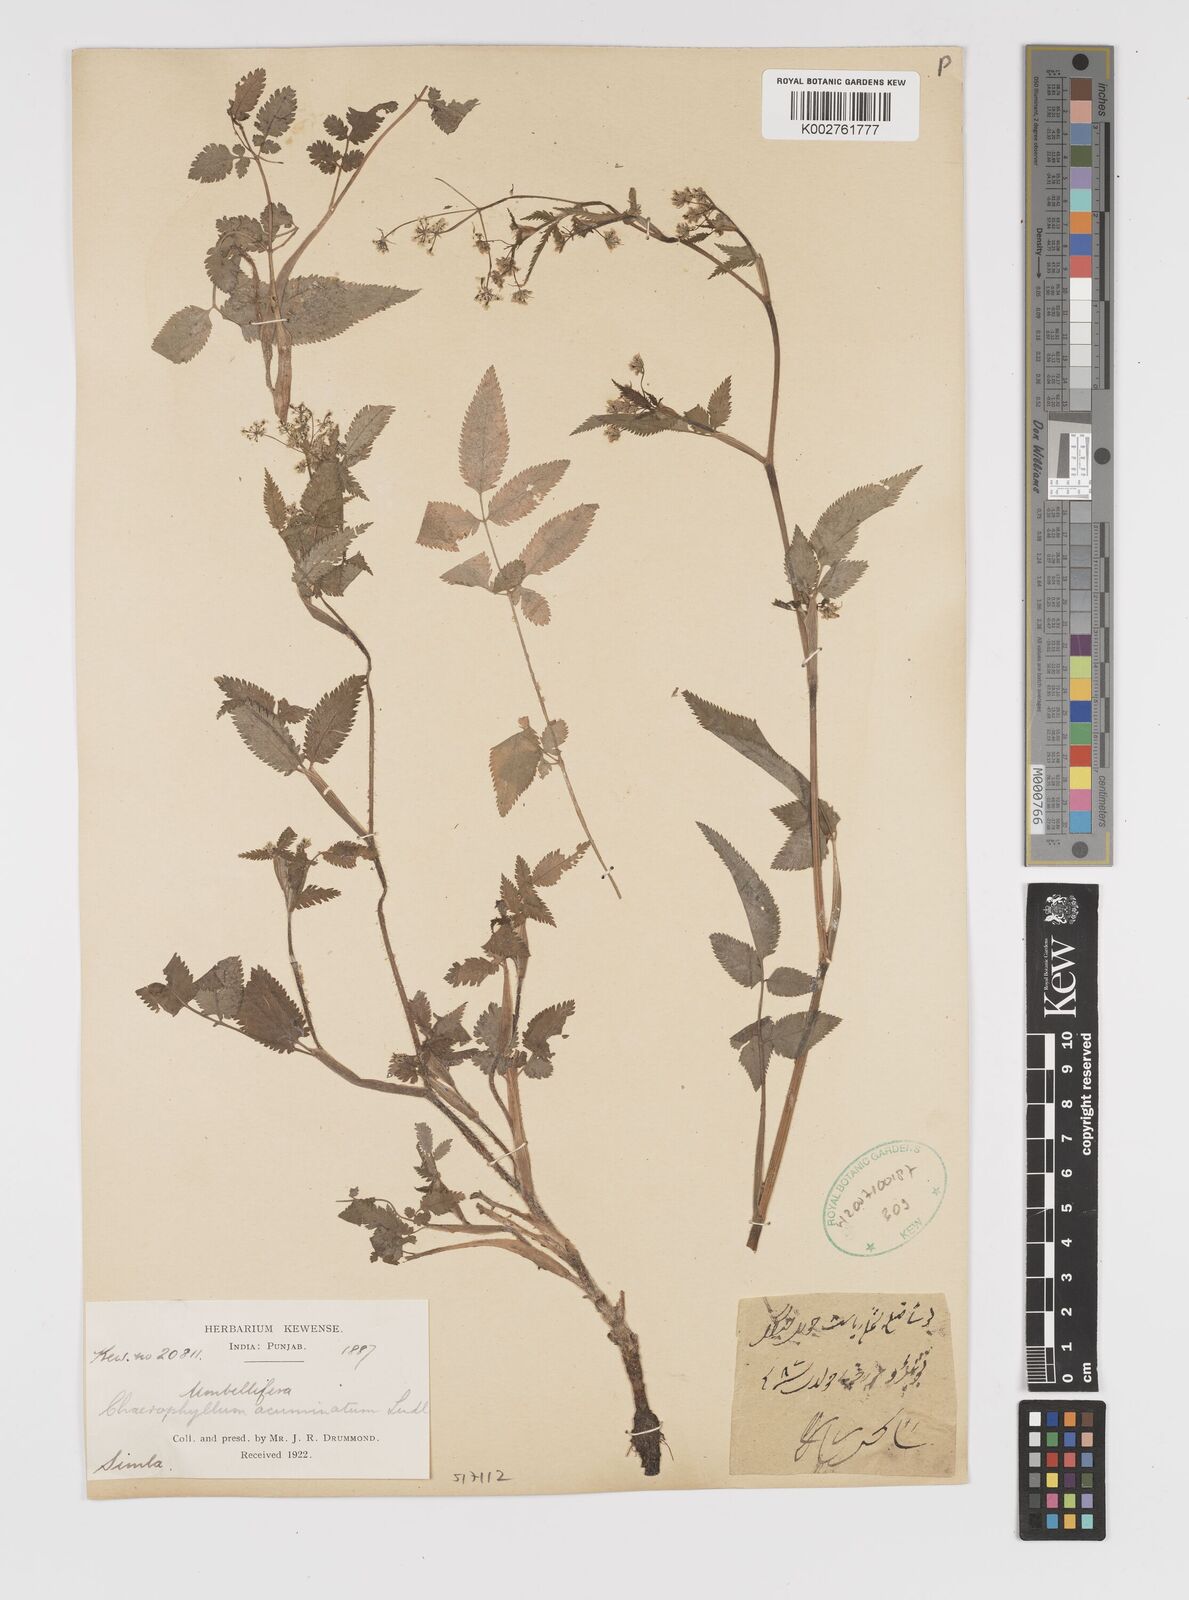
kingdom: Plantae
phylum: Tracheophyta
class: Magnoliopsida
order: Apiales
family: Apiaceae
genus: Chaerophyllum
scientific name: Chaerophyllum reflexum
